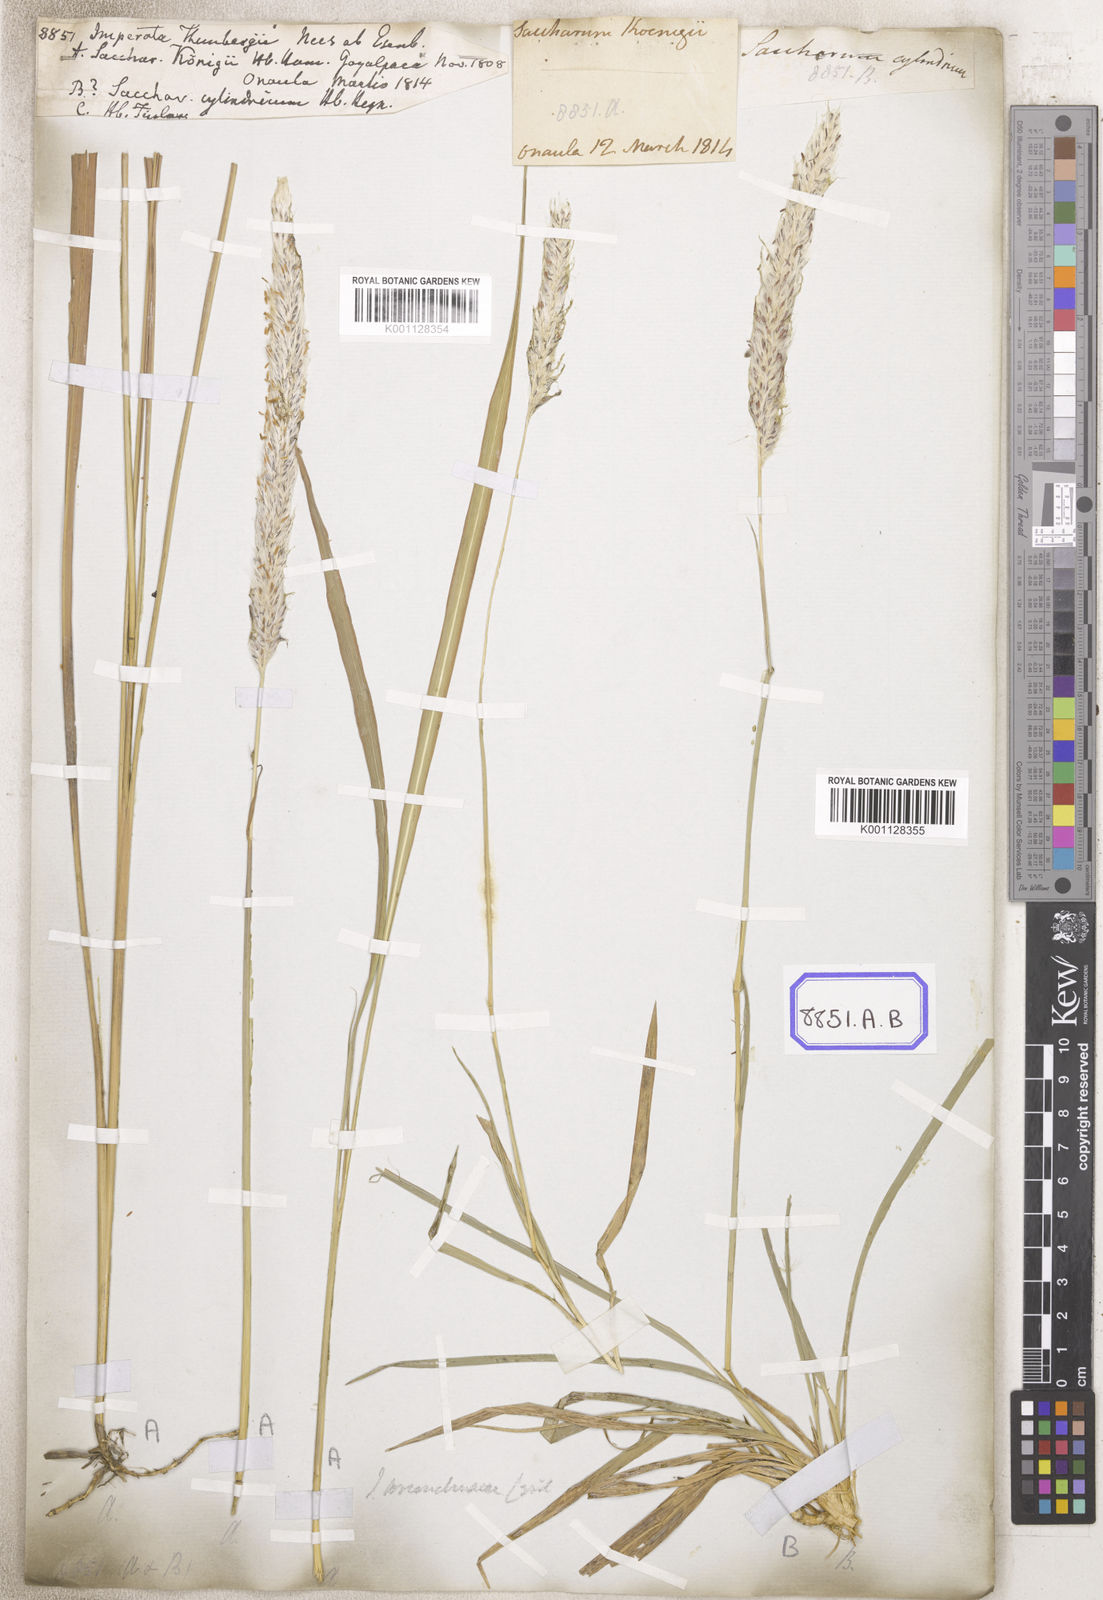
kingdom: Plantae
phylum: Tracheophyta
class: Liliopsida
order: Poales
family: Poaceae
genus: Imperata
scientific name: Imperata
